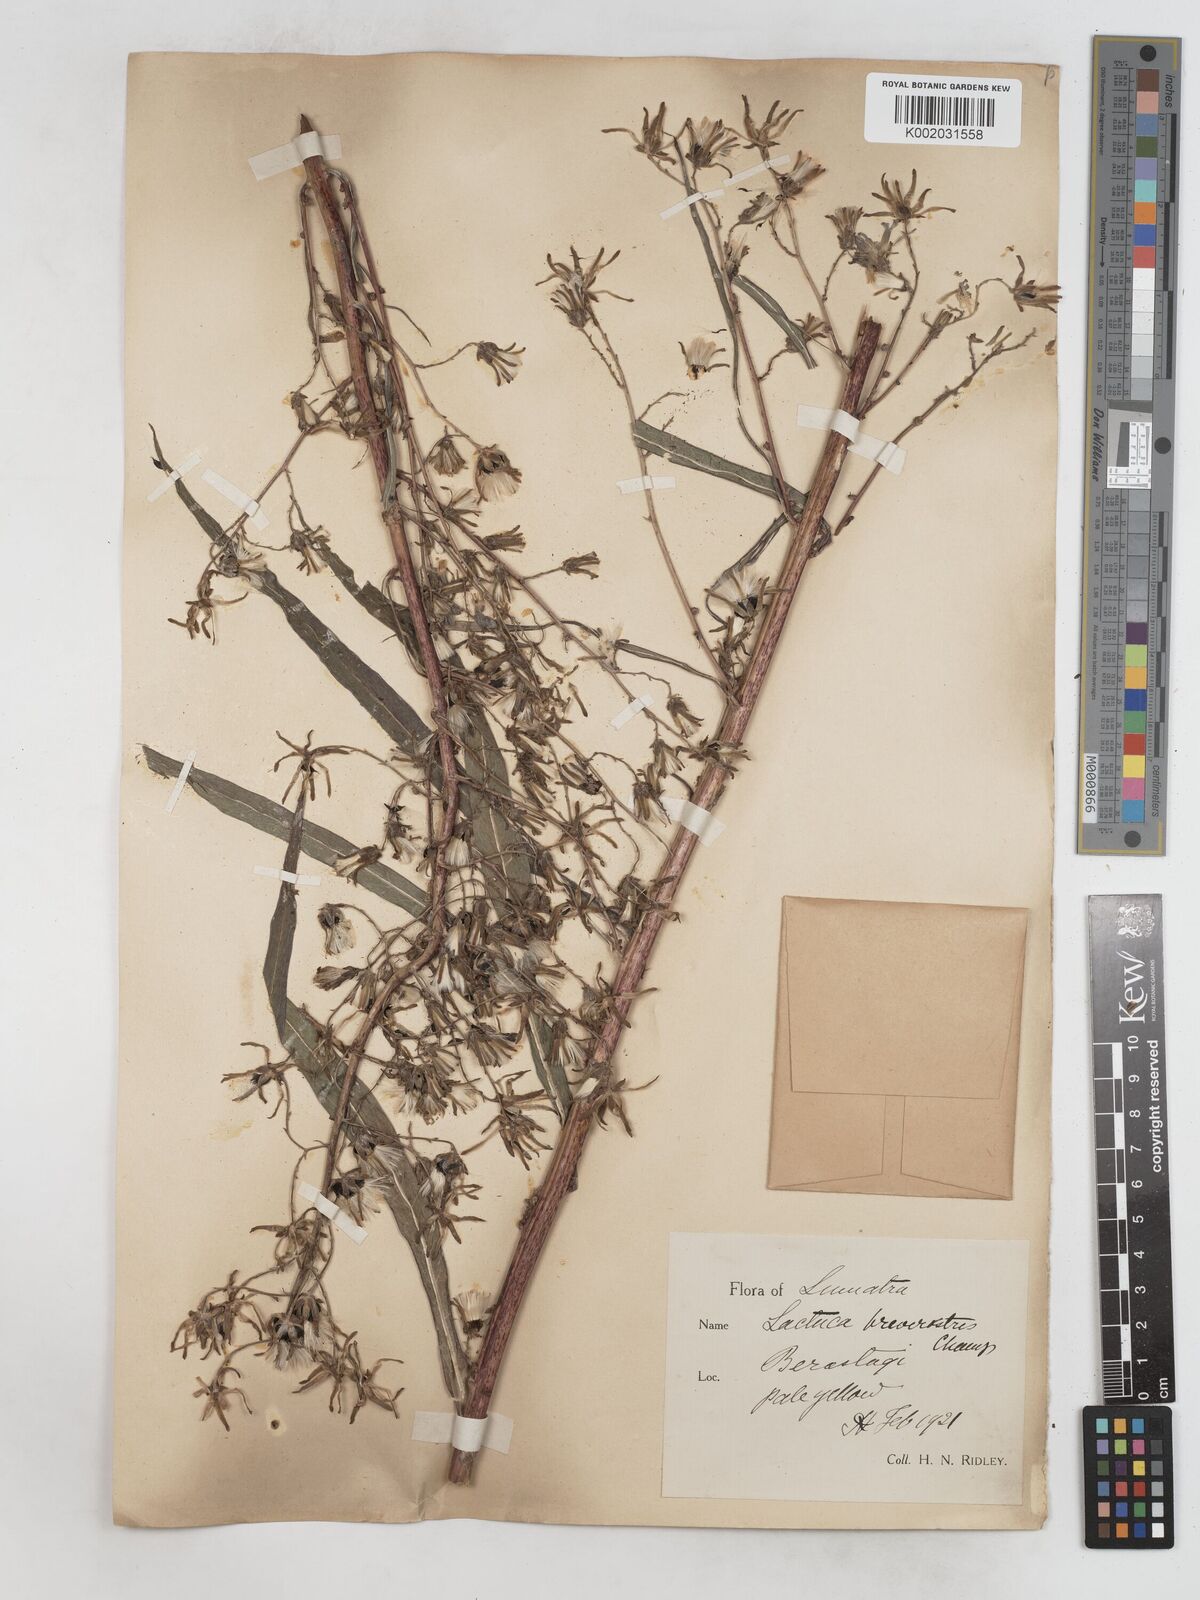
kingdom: Plantae
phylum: Tracheophyta
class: Magnoliopsida
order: Asterales
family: Asteraceae
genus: Lactuca
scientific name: Lactuca indica
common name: Wild lettuce
